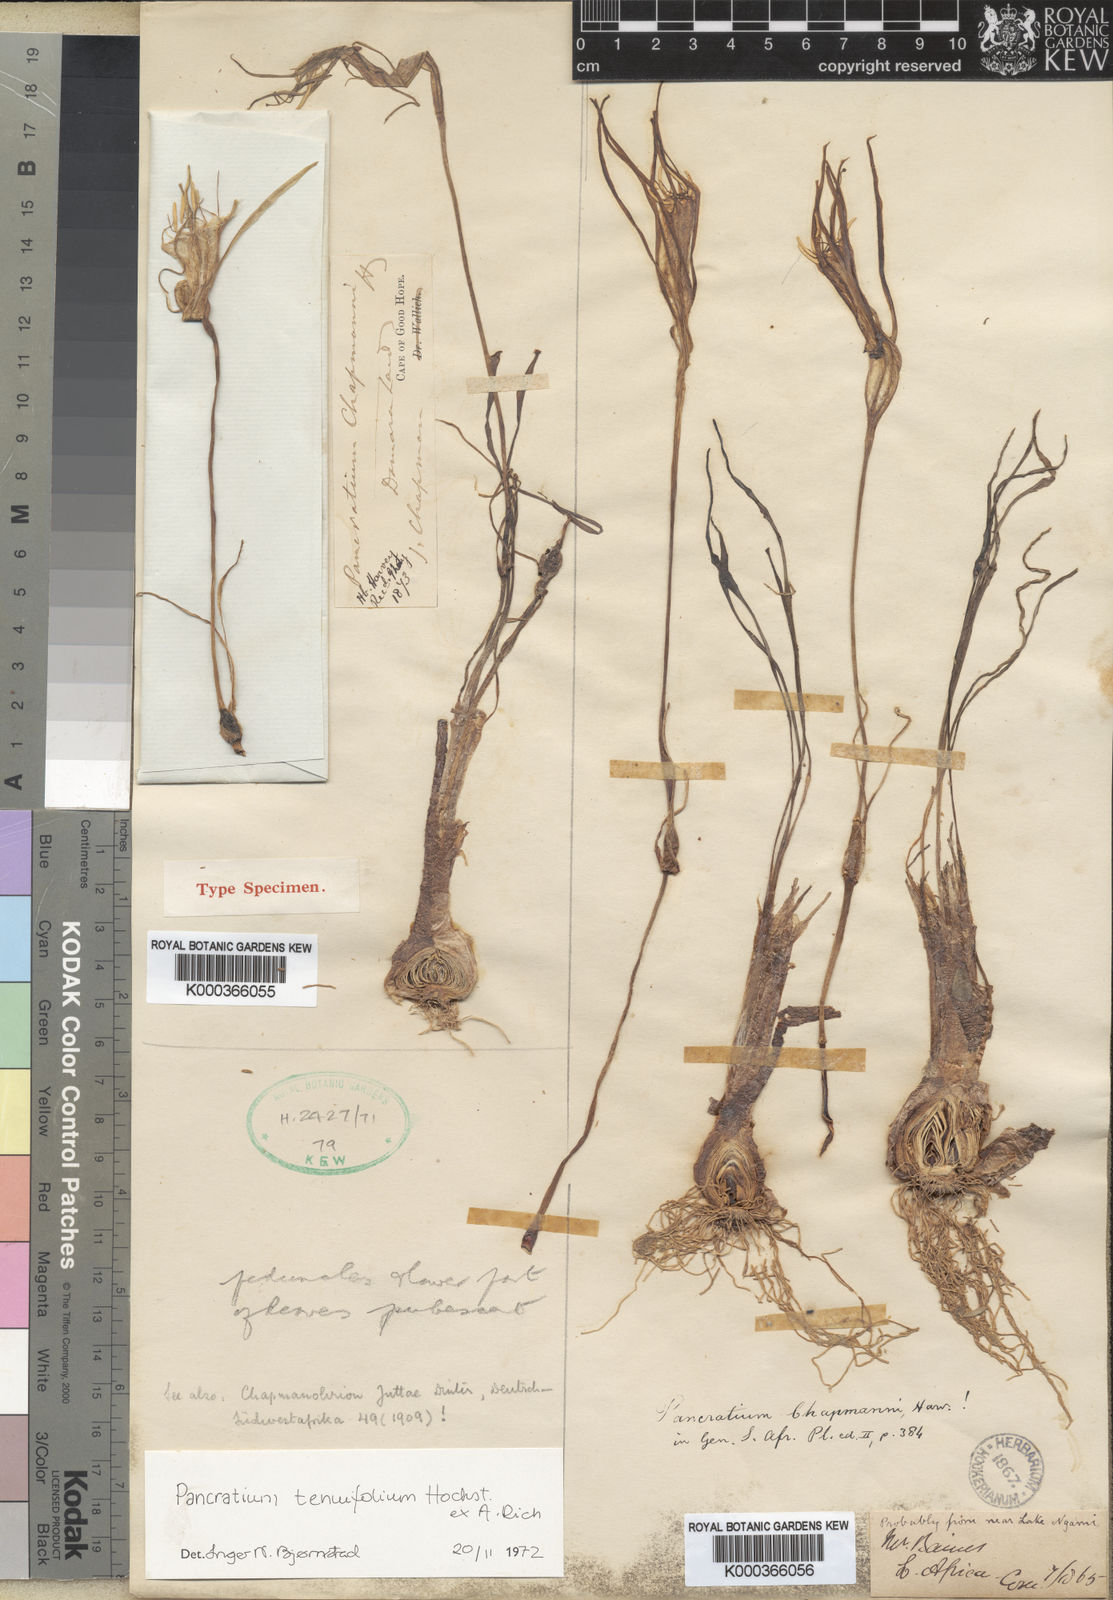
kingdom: Plantae
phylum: Tracheophyta
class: Liliopsida
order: Asparagales
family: Amaryllidaceae
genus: Pancratium
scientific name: Pancratium
